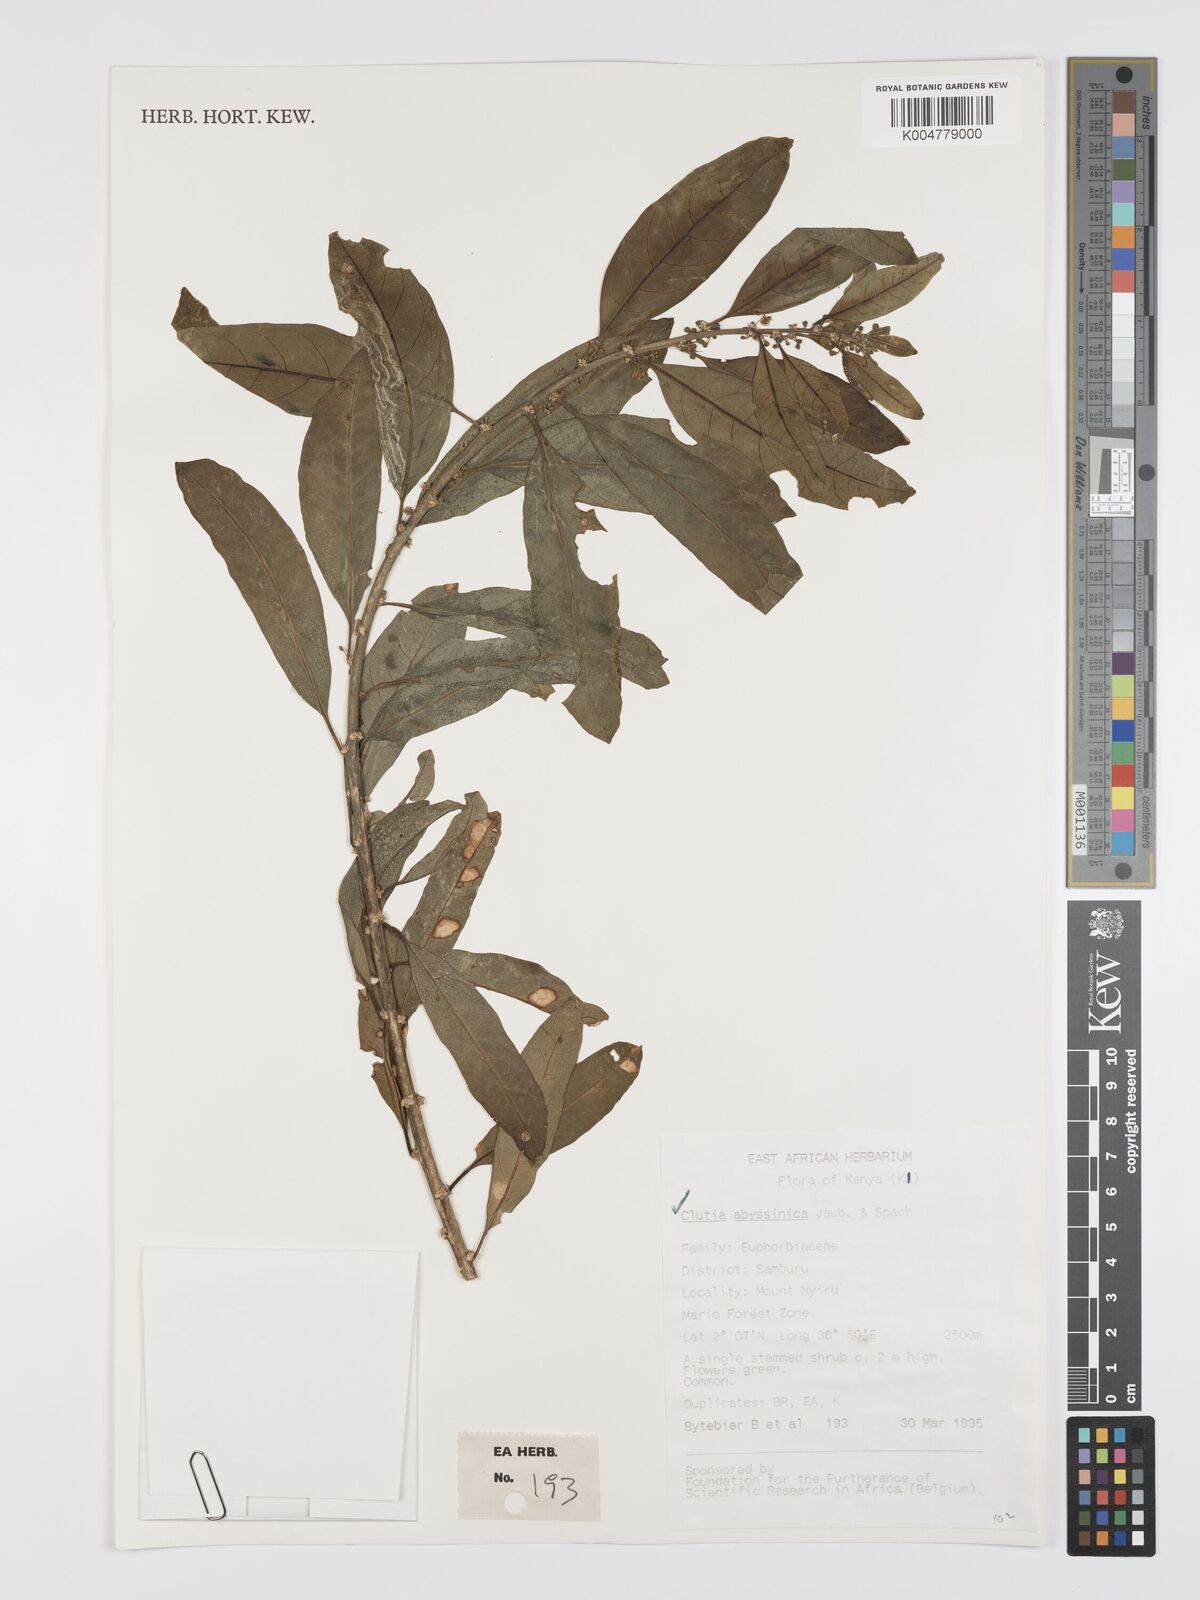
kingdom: Plantae
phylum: Tracheophyta
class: Magnoliopsida
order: Malpighiales
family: Peraceae
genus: Clutia
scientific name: Clutia abyssinica
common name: Large lightning bush
